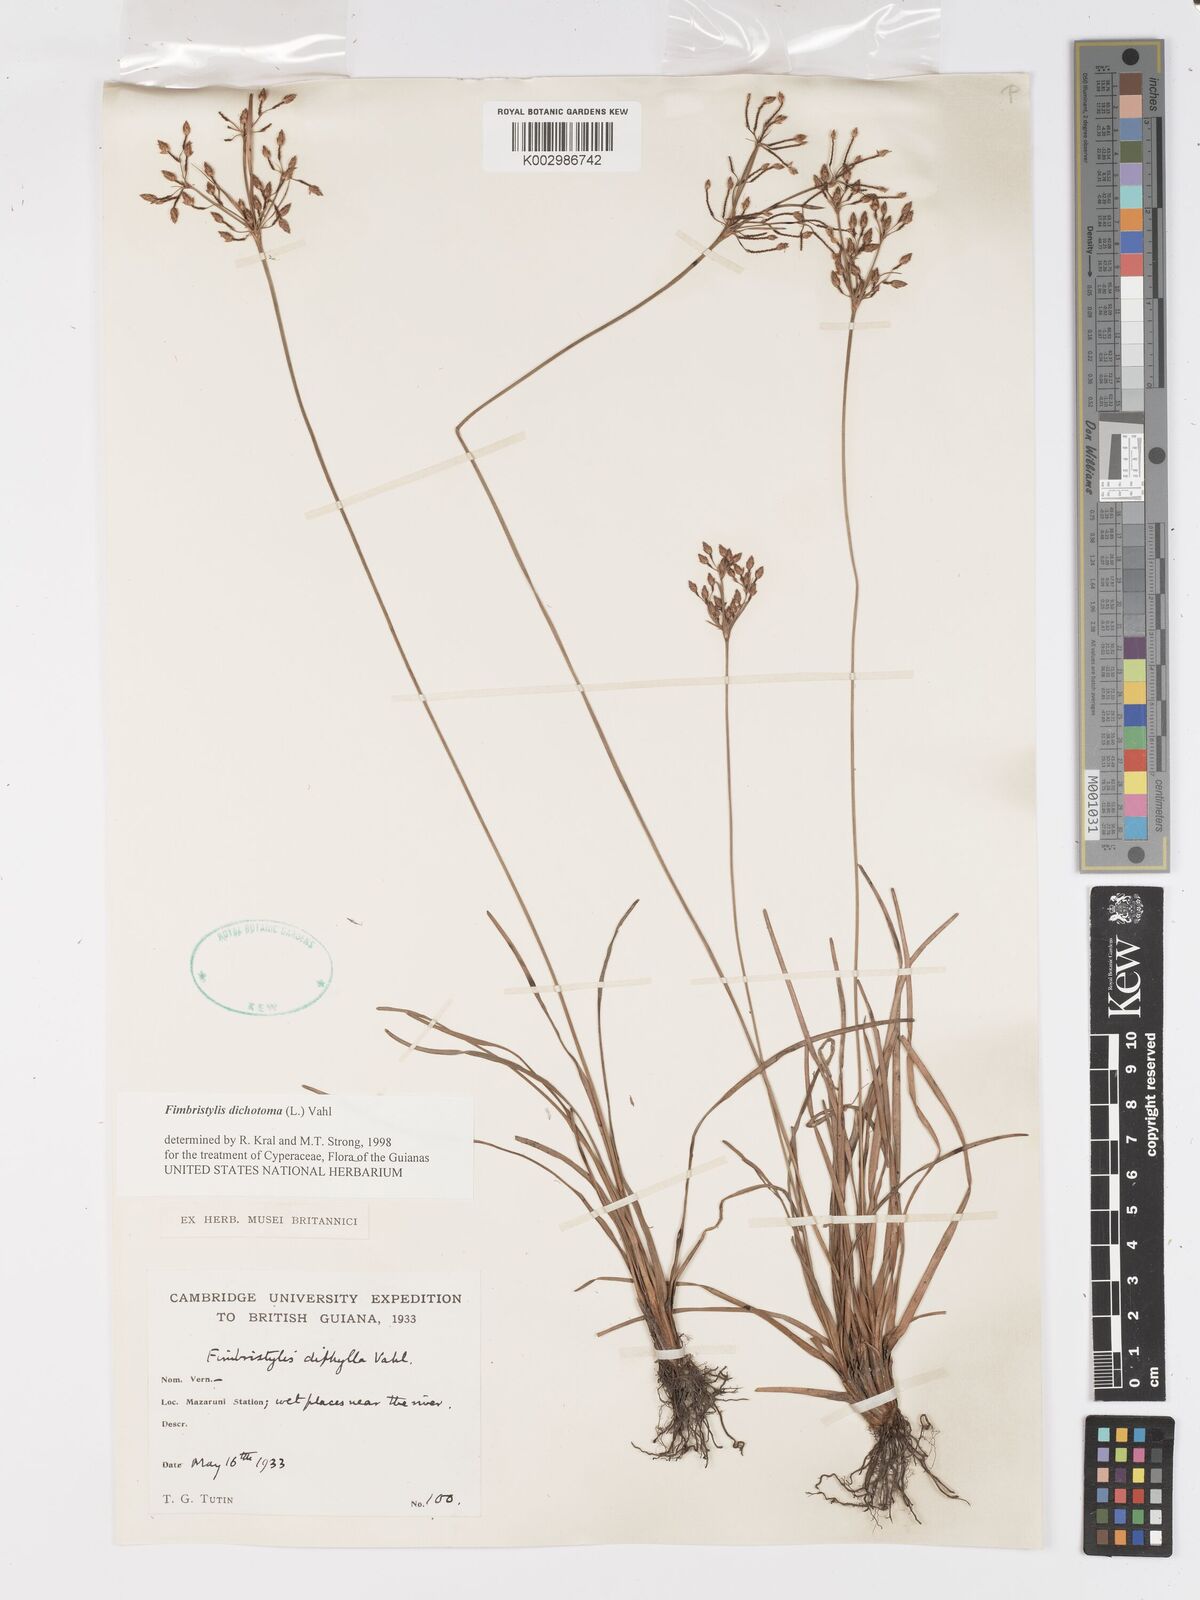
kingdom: Plantae
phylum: Tracheophyta
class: Liliopsida
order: Poales
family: Cyperaceae
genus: Fimbristylis
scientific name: Fimbristylis dichotoma
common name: Forked fimbry
